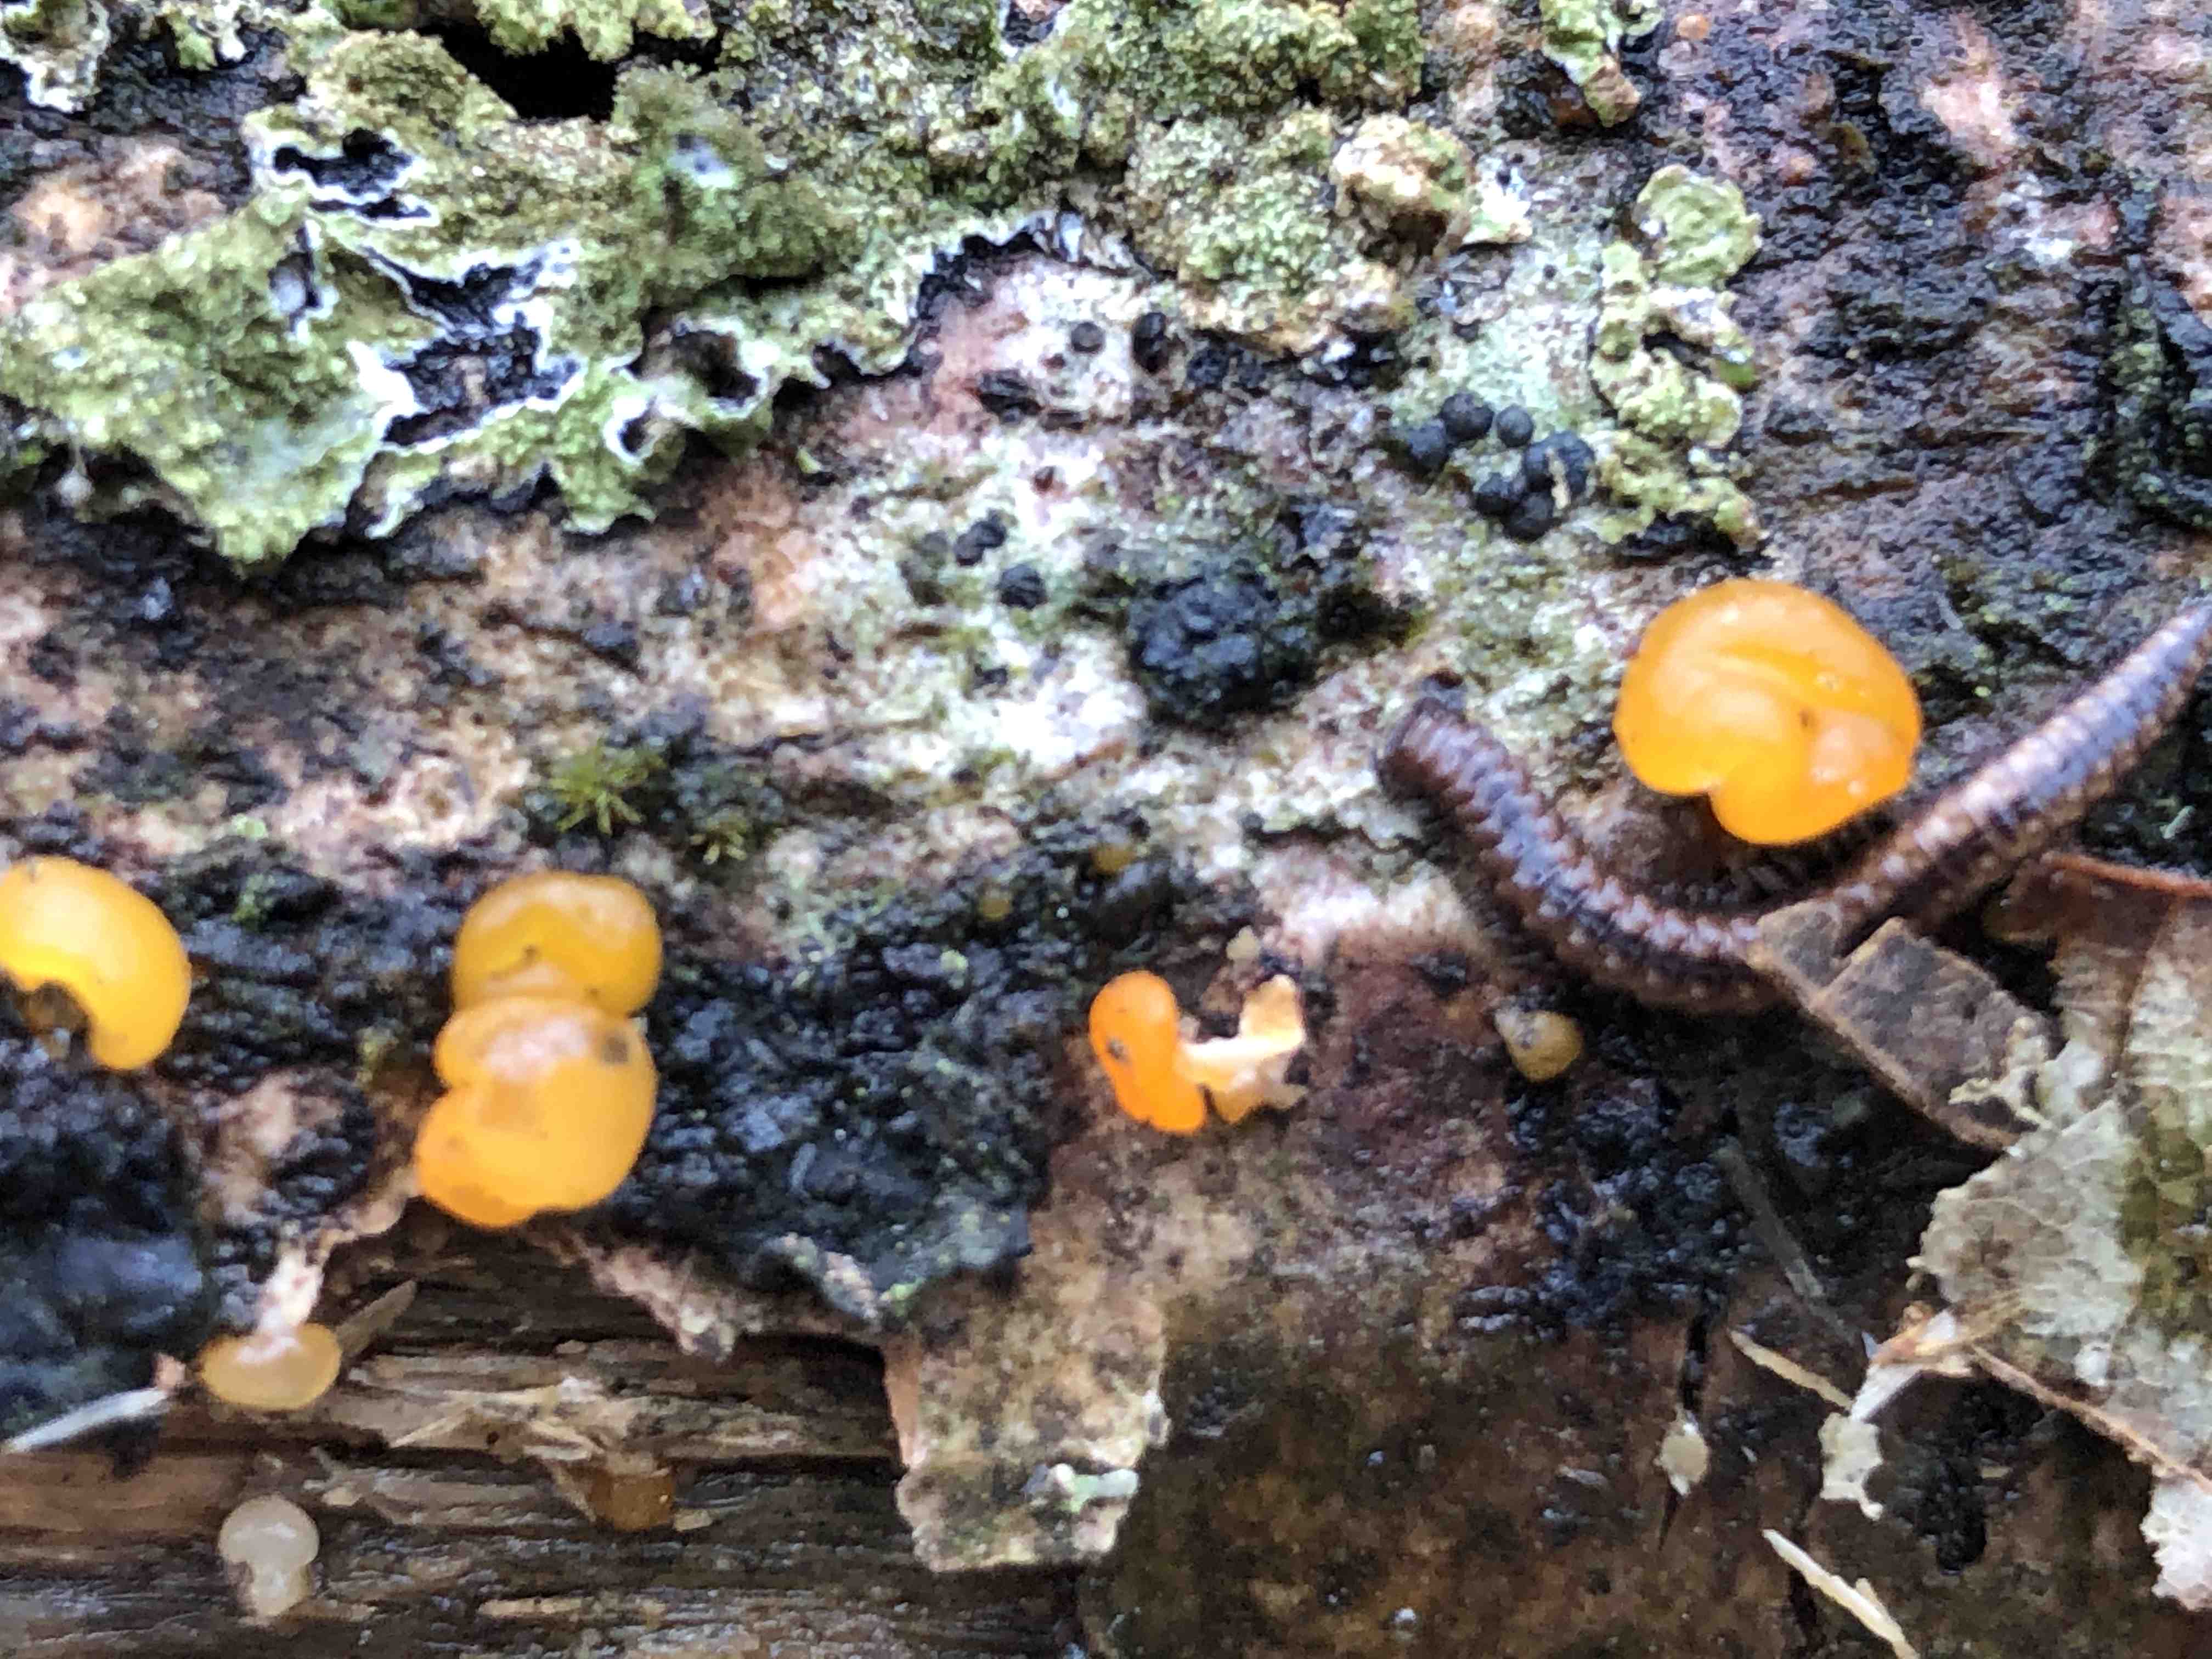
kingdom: Fungi
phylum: Basidiomycota
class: Dacrymycetes
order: Dacrymycetales
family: Dacrymycetaceae
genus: Dacrymyces
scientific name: Dacrymyces stillatus
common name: almindelig tåresvamp
